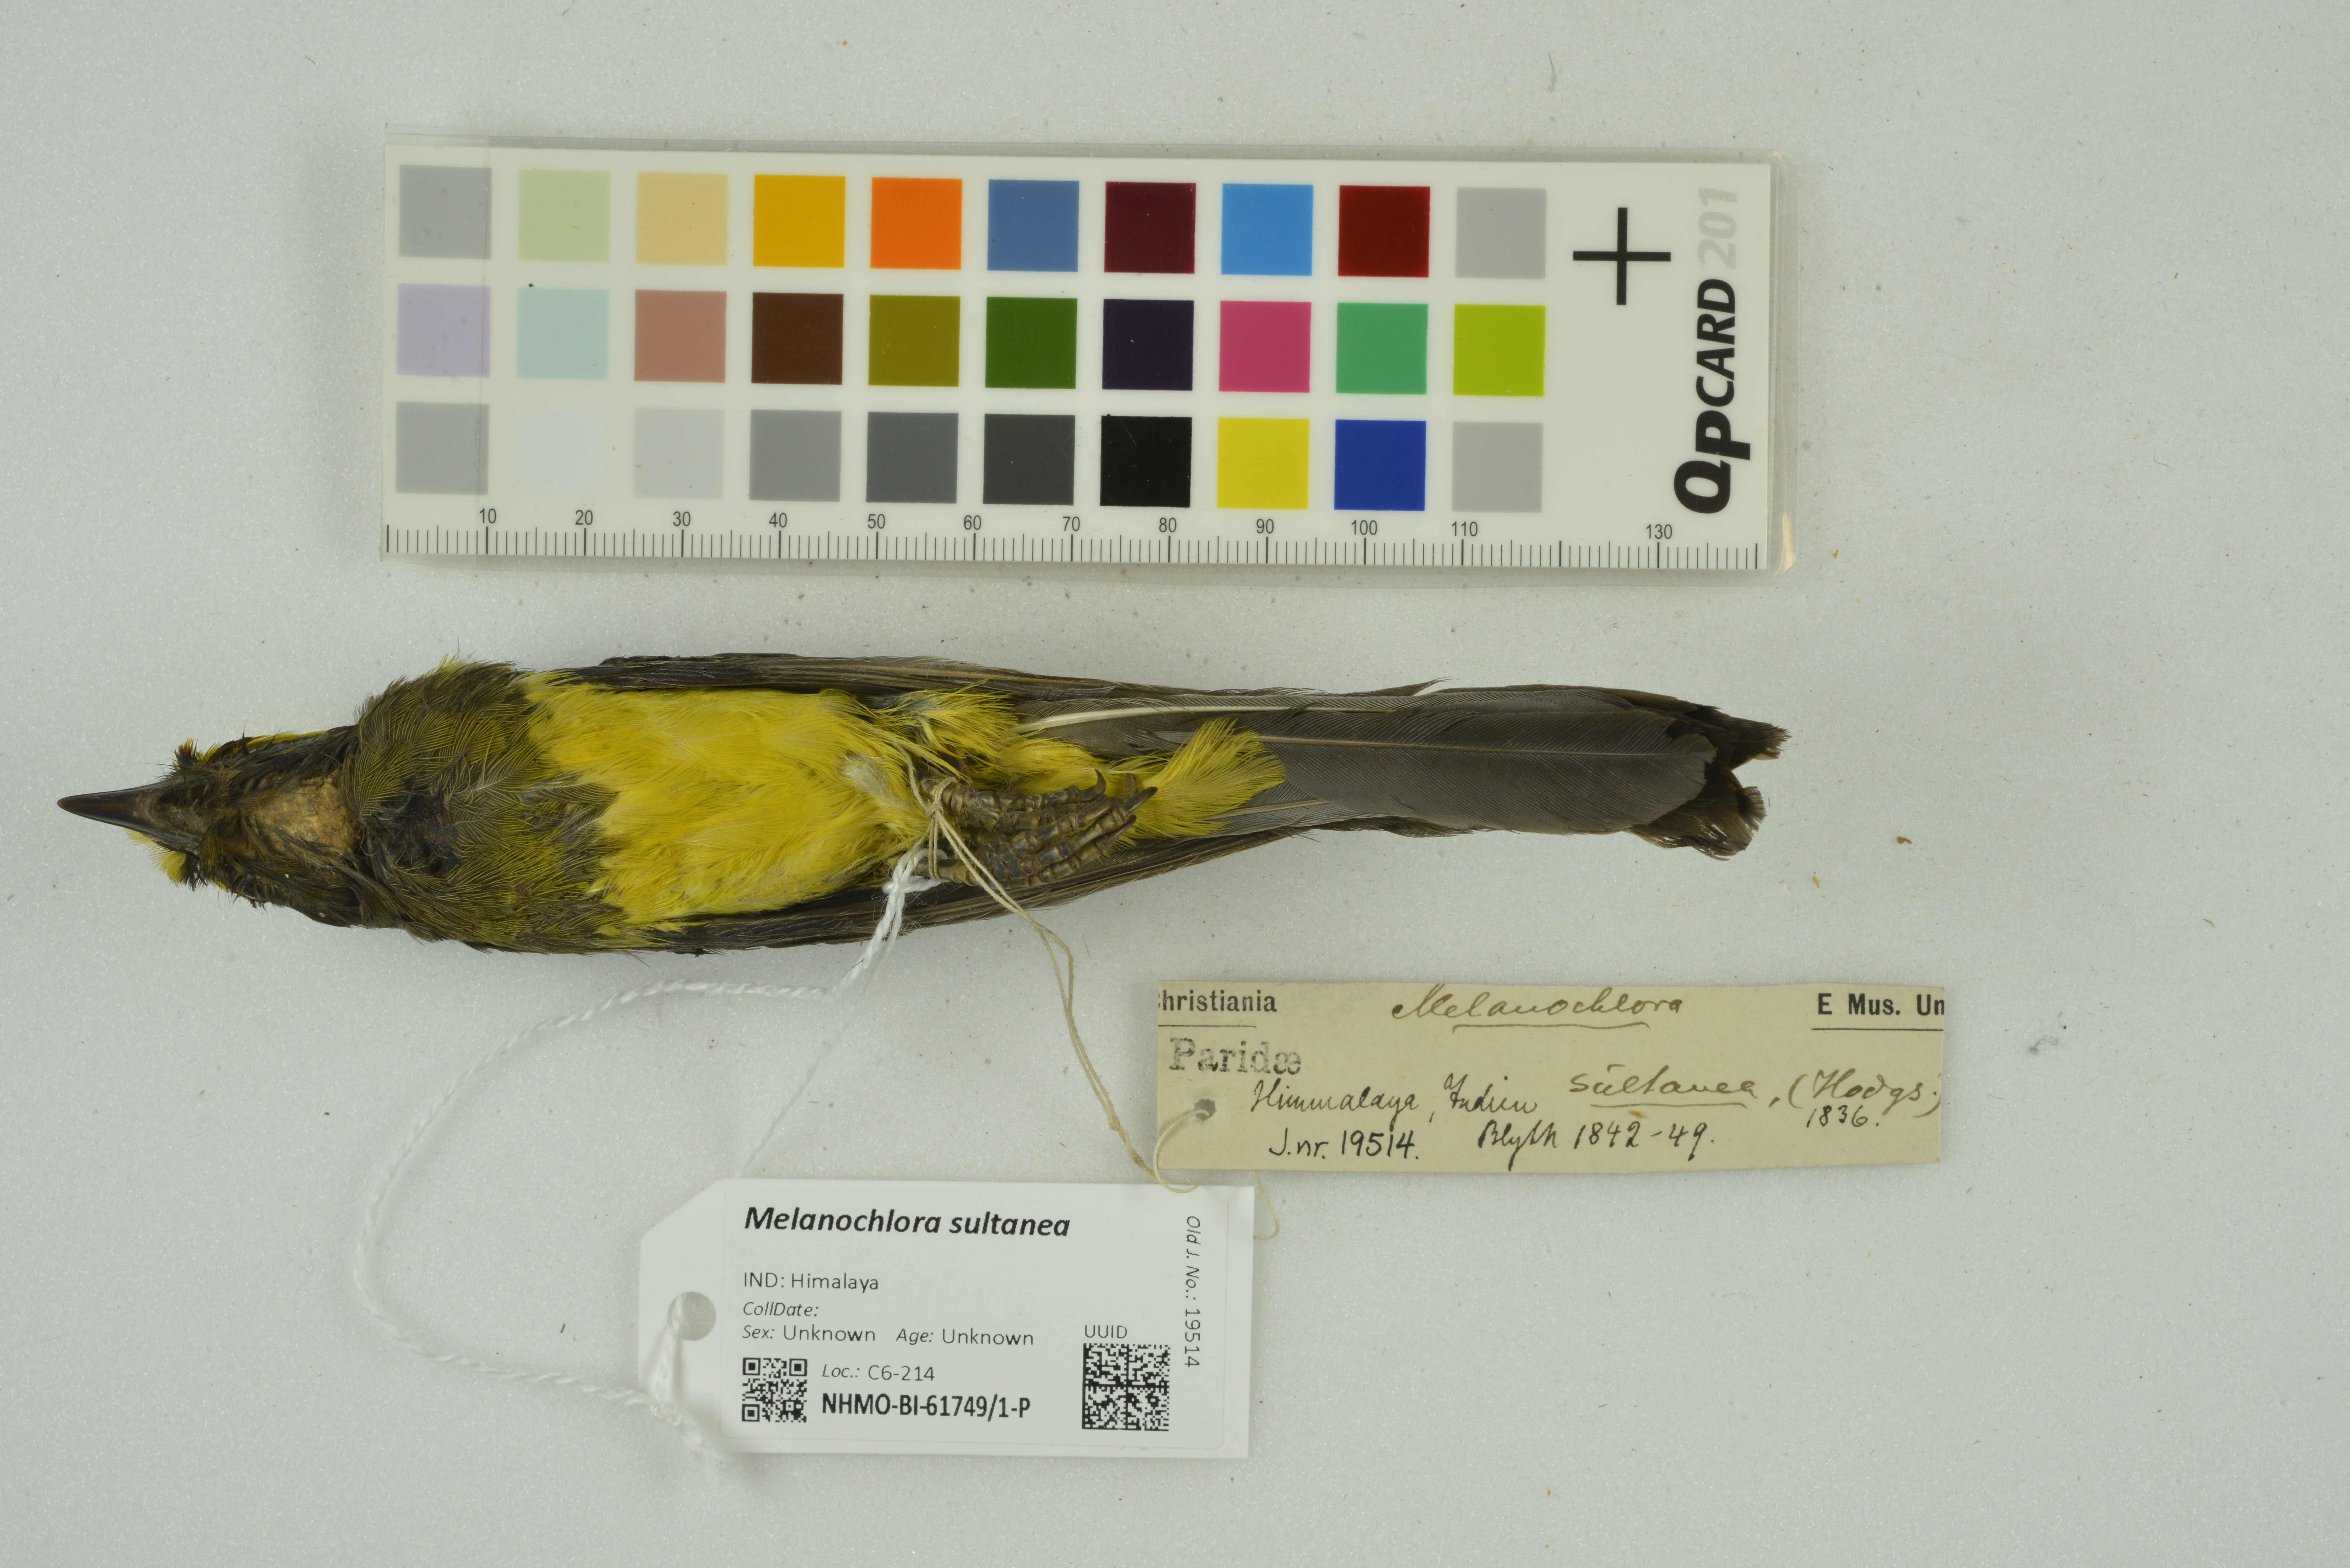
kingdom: Animalia
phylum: Chordata
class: Aves
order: Passeriformes
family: Paridae
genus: Melanochlora
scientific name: Melanochlora sultanea
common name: Sultan tit
